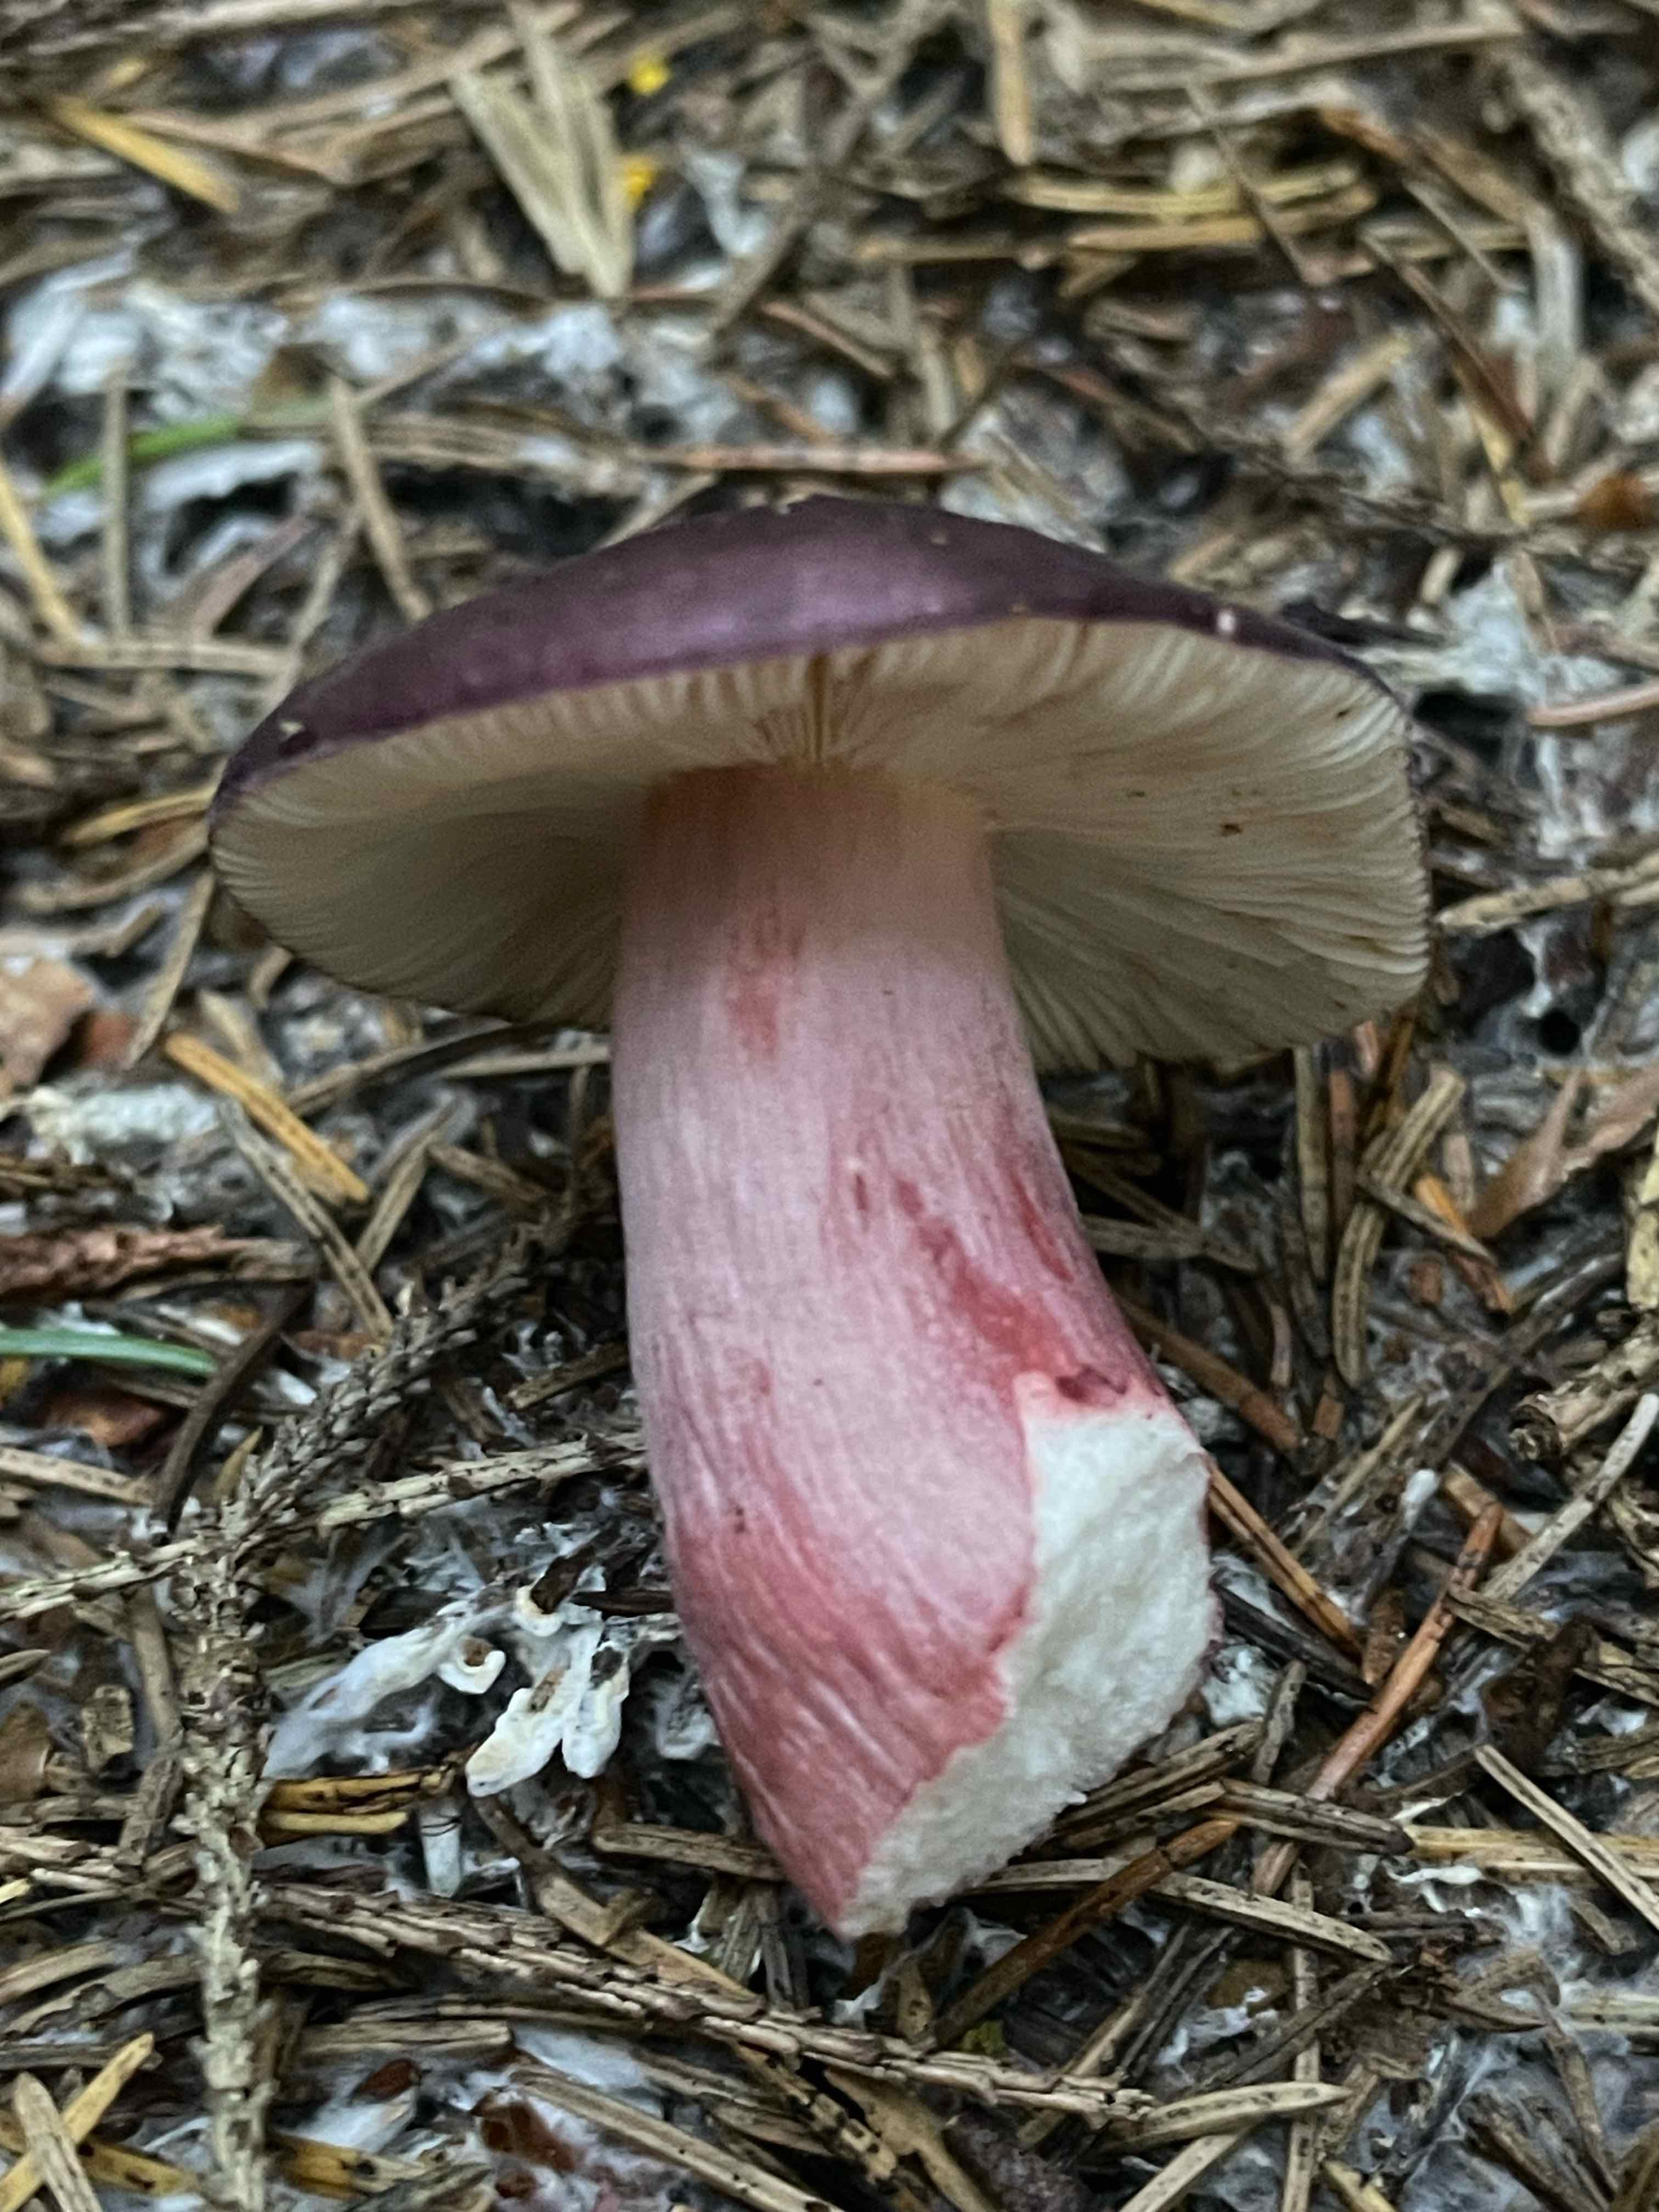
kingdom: Fungi
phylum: Basidiomycota
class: Agaricomycetes
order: Russulales
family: Russulaceae
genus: Russula
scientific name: Russula queletii
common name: Quélets skørhat
